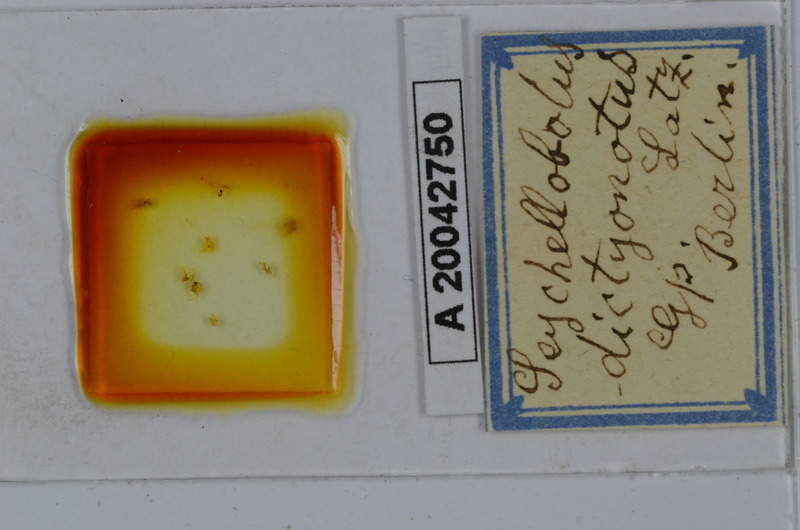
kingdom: Animalia
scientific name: Animalia
